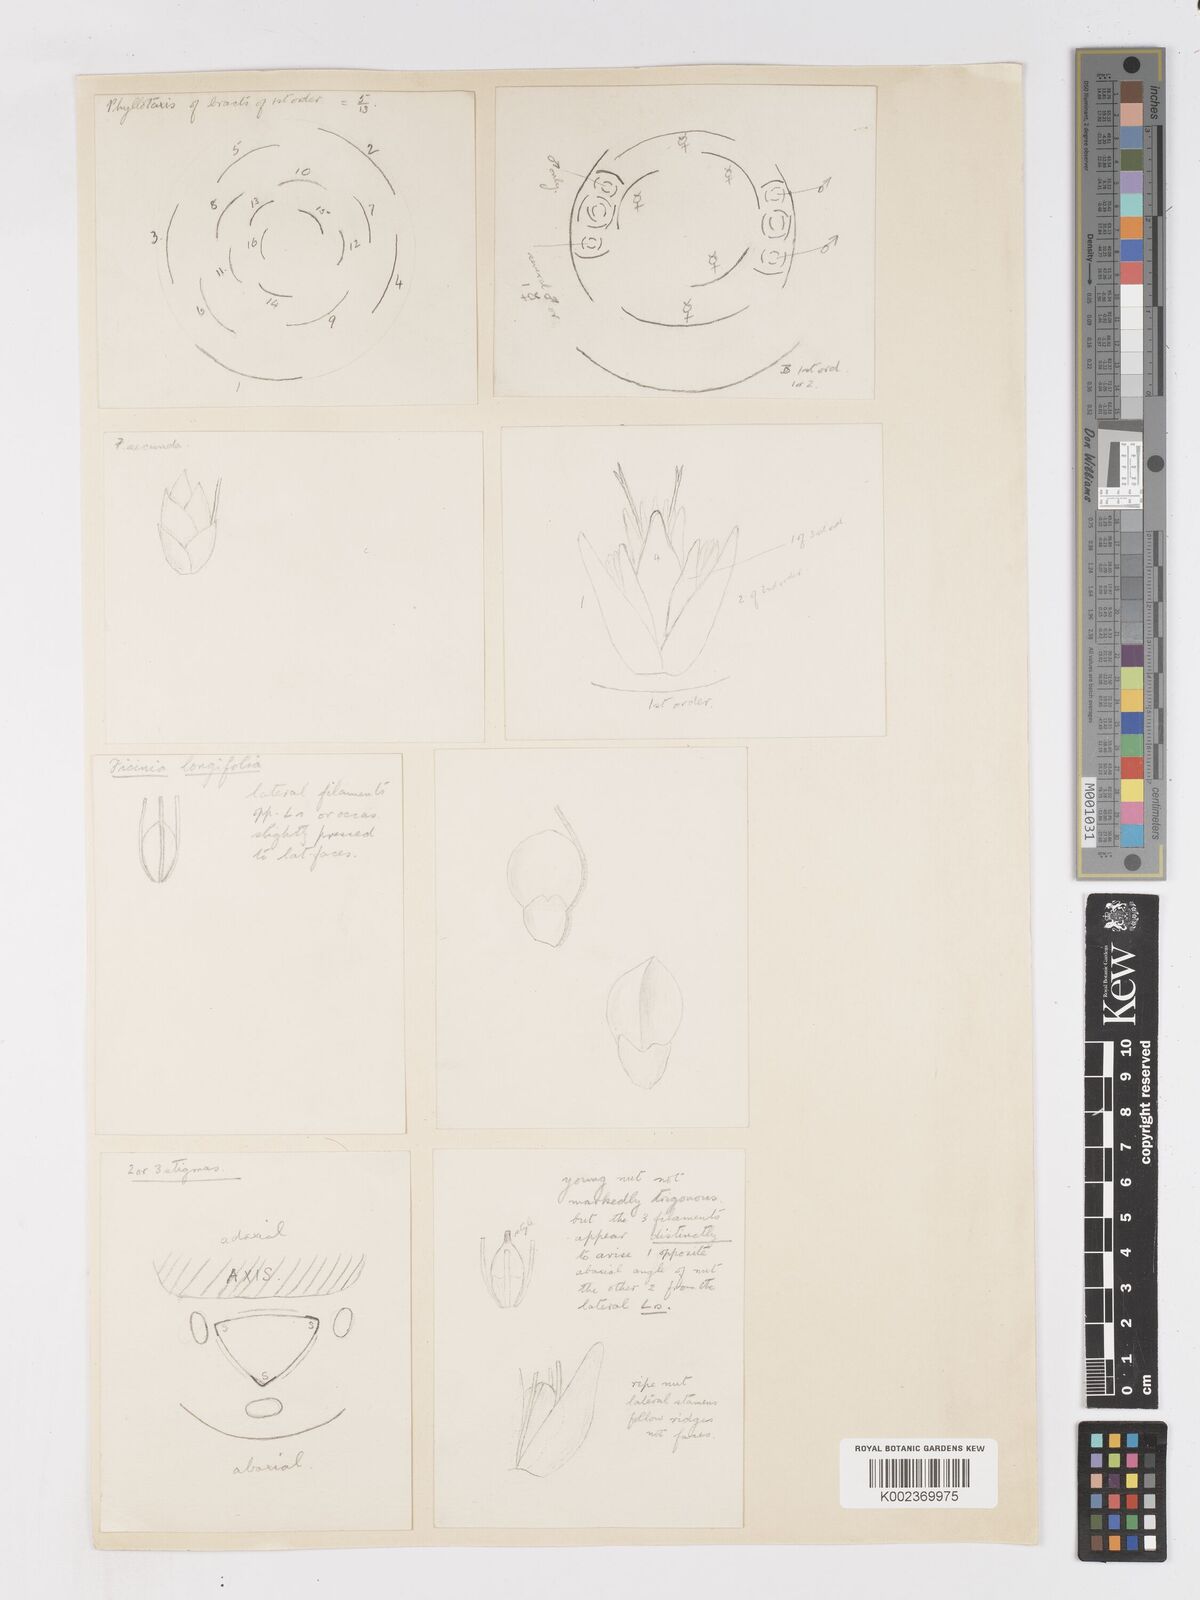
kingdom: Plantae
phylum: Tracheophyta
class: Liliopsida
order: Poales
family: Cyperaceae
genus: Ficinia
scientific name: Ficinia ixioides
